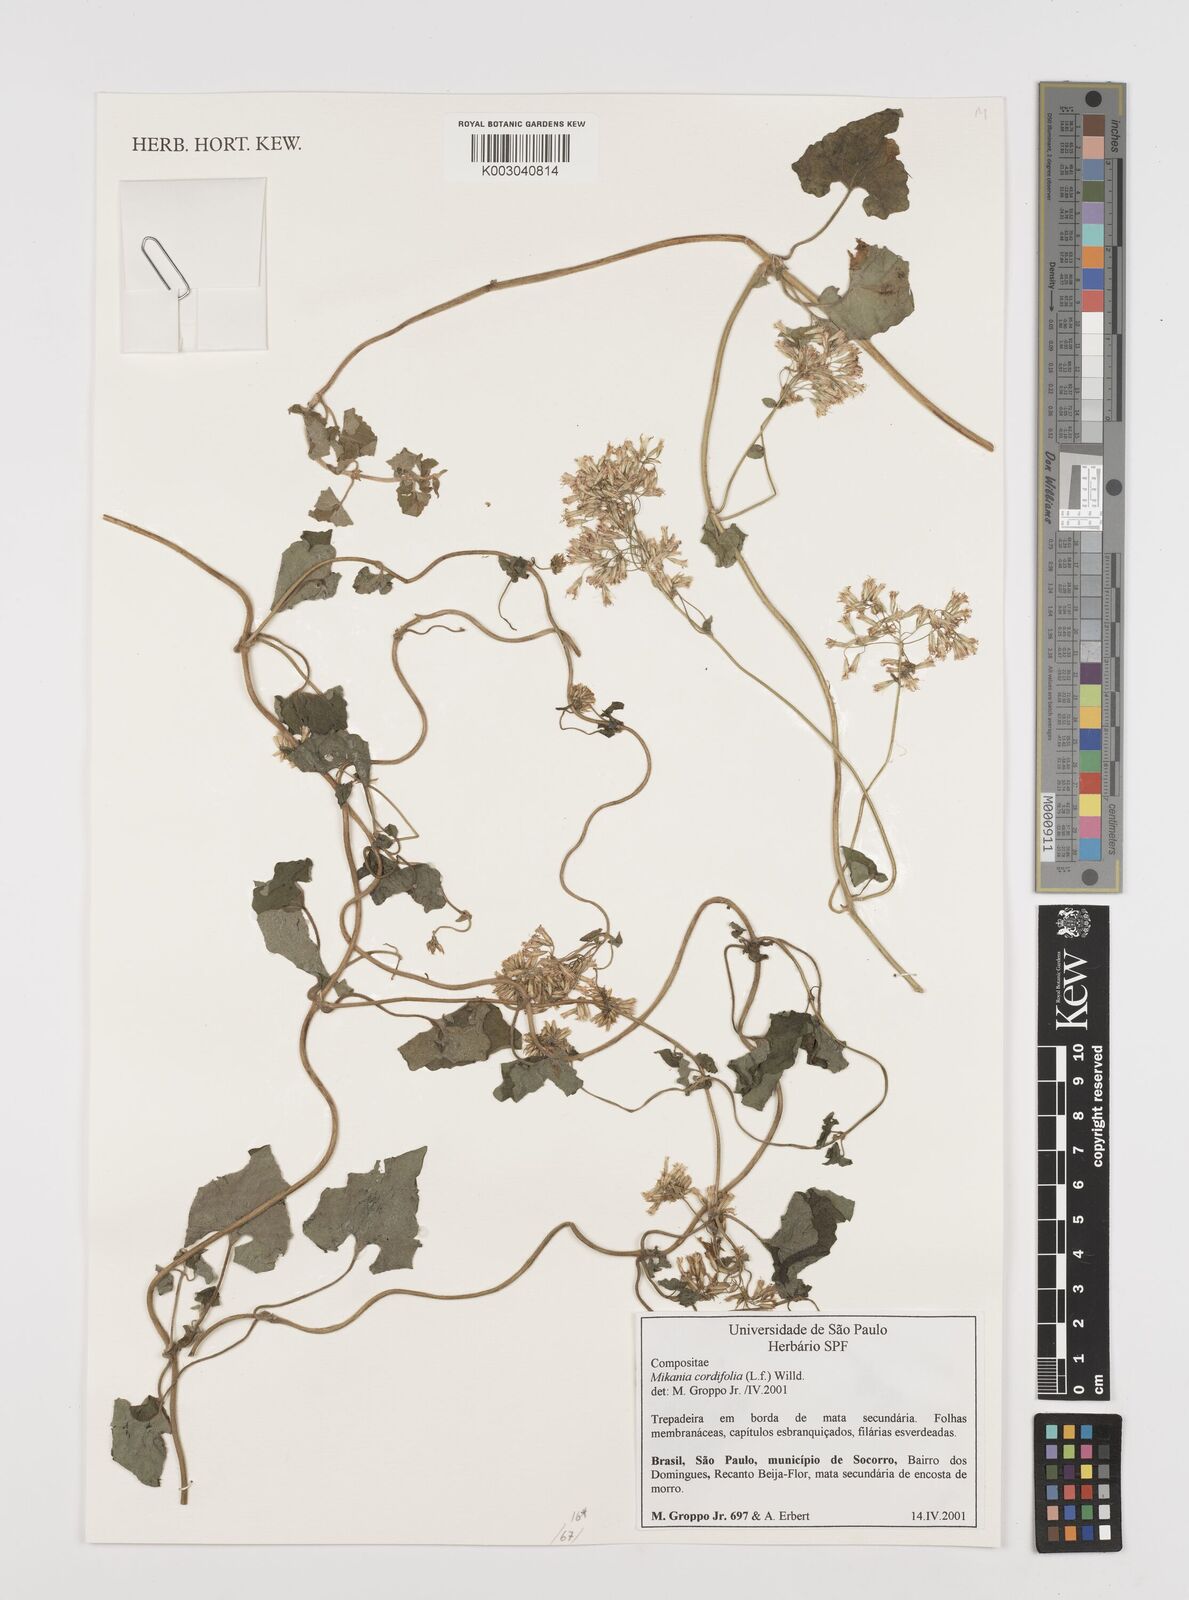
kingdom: Plantae
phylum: Tracheophyta
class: Magnoliopsida
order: Asterales
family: Asteraceae
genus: Mikania
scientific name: Mikania cordifolia
